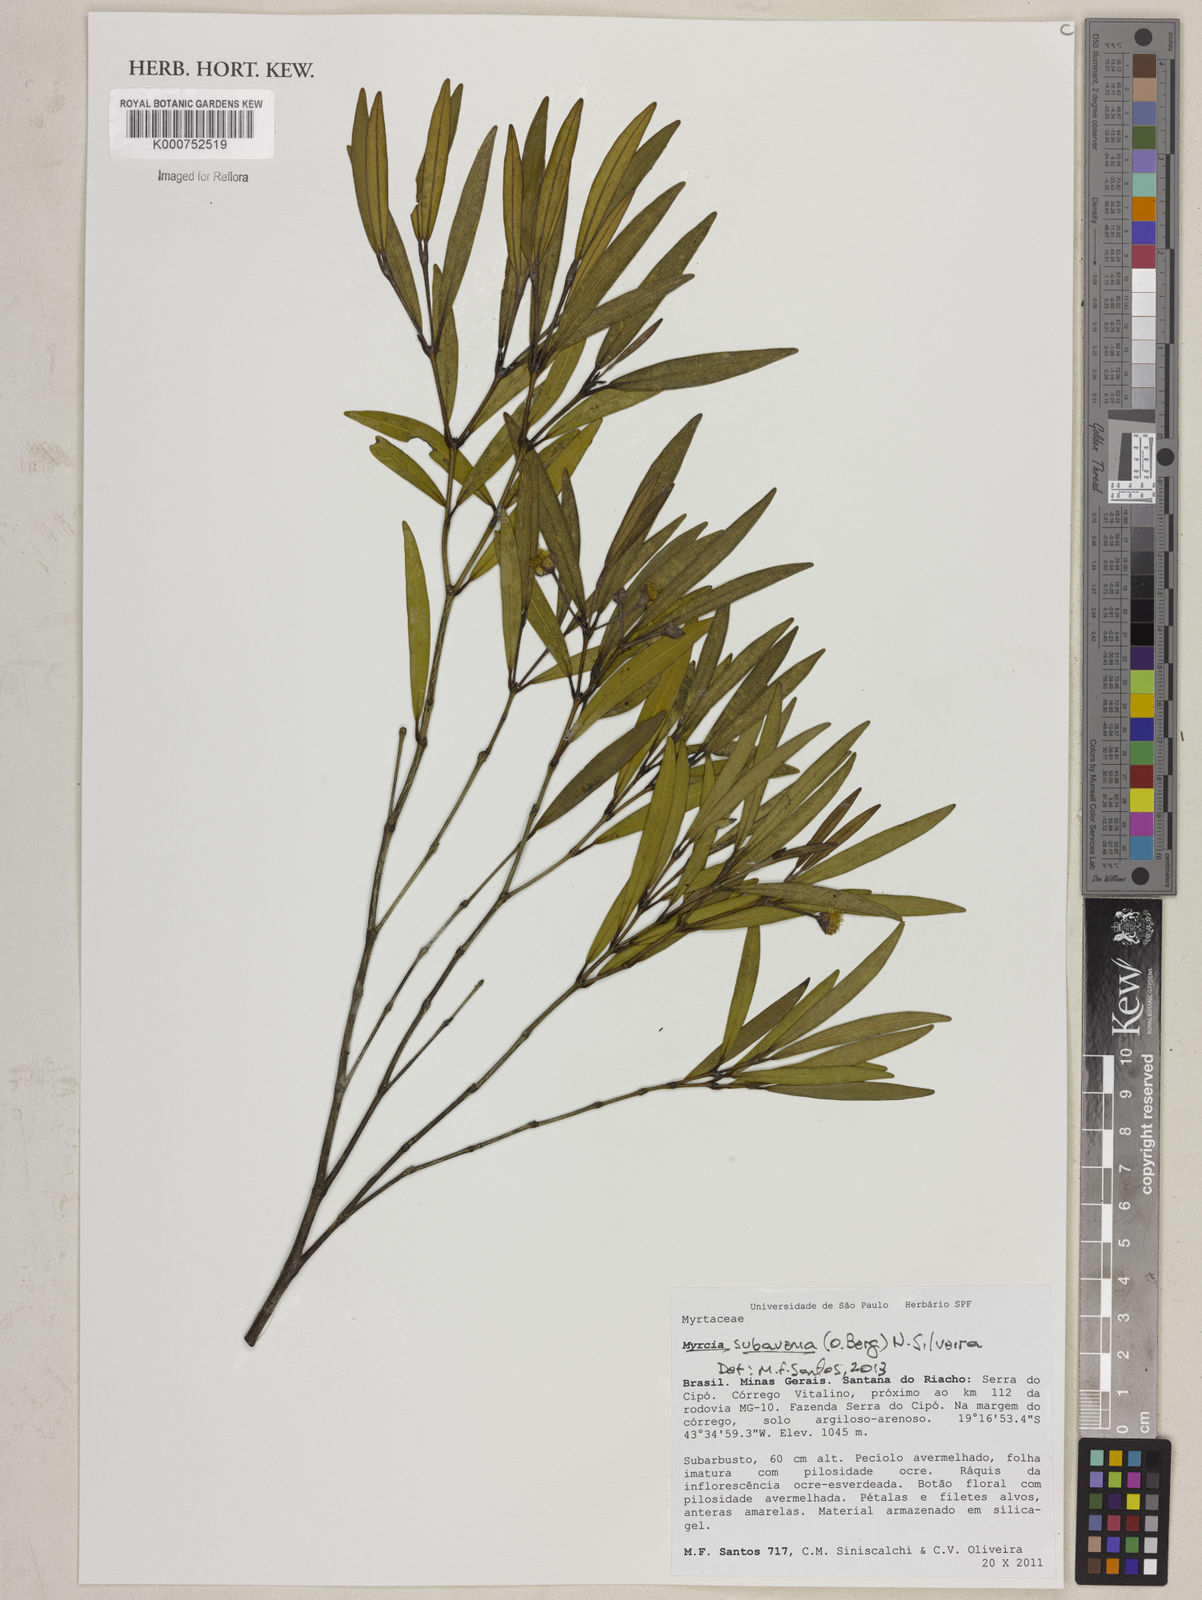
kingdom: Plantae
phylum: Tracheophyta
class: Magnoliopsida
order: Myrtales
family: Myrtaceae
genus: Myrcia
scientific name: Myrcia subavenia
